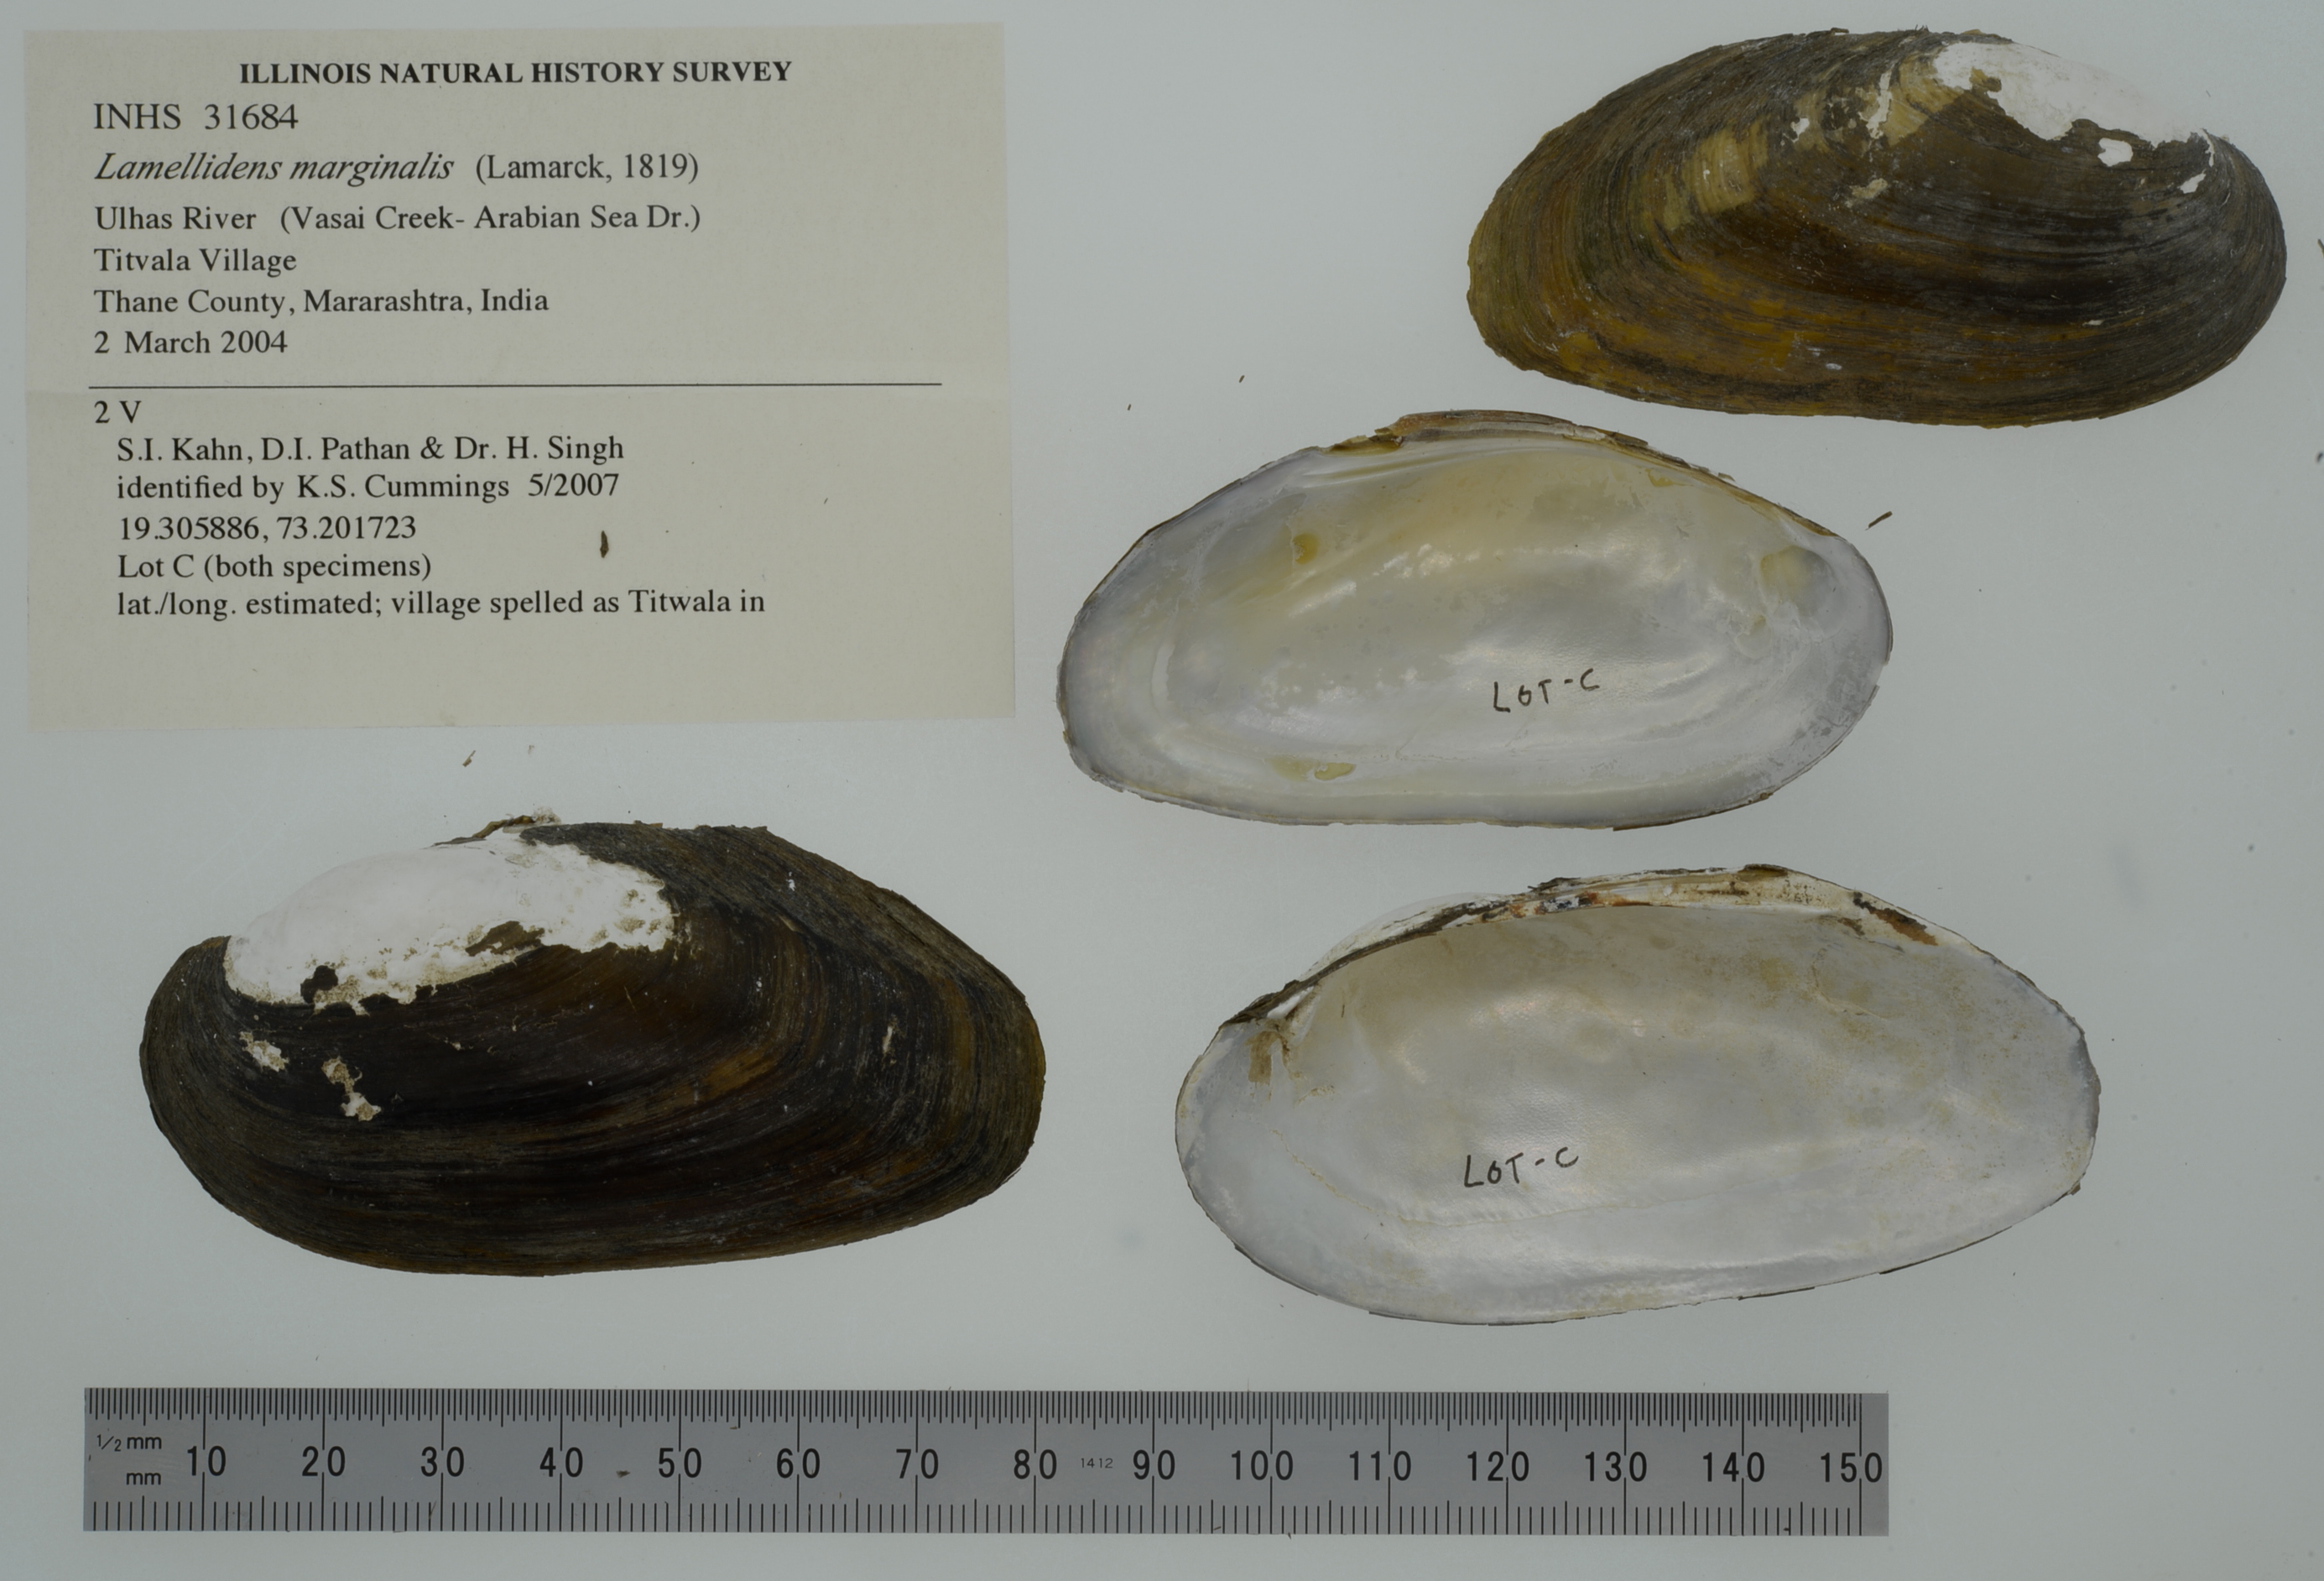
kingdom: Animalia
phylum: Mollusca
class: Bivalvia
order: Unionida
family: Unionidae
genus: Lamellidens
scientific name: Lamellidens marginalis
